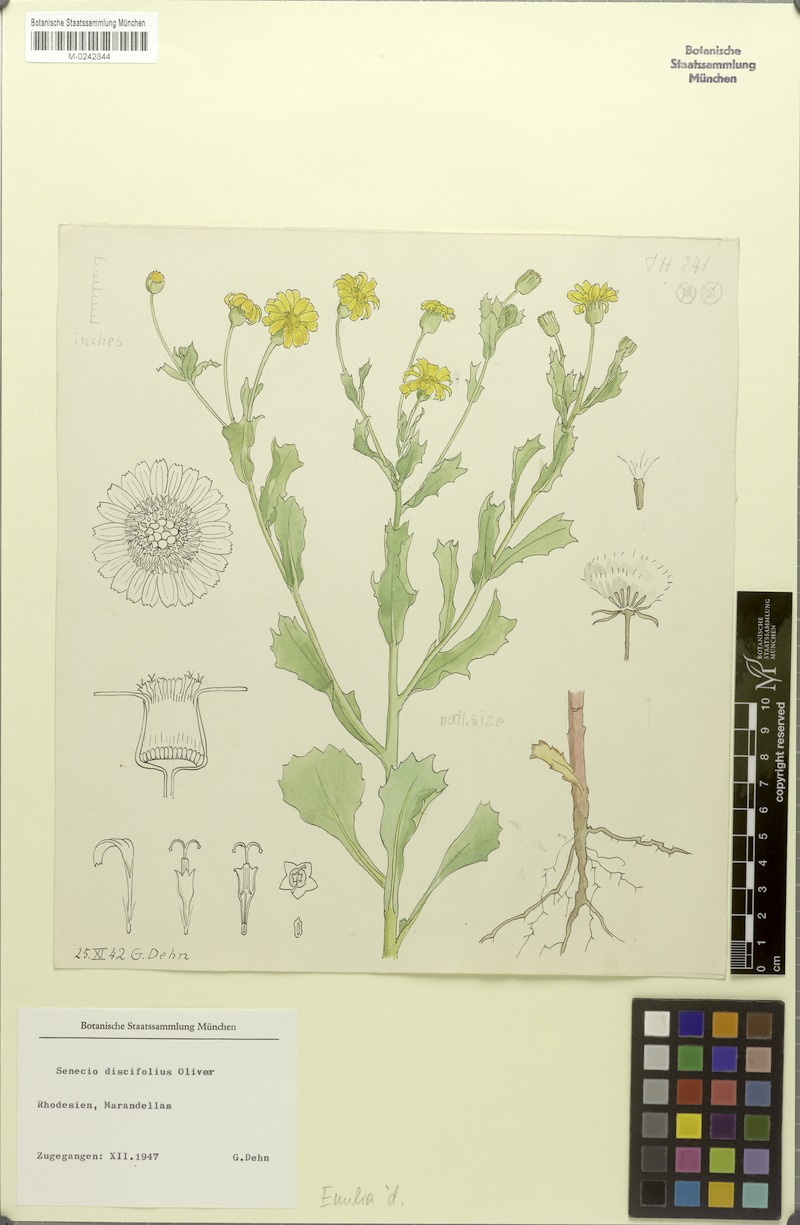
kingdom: Plantae
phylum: Tracheophyta
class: Magnoliopsida
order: Asterales
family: Asteraceae
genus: Emilia
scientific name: Emilia discifolia
